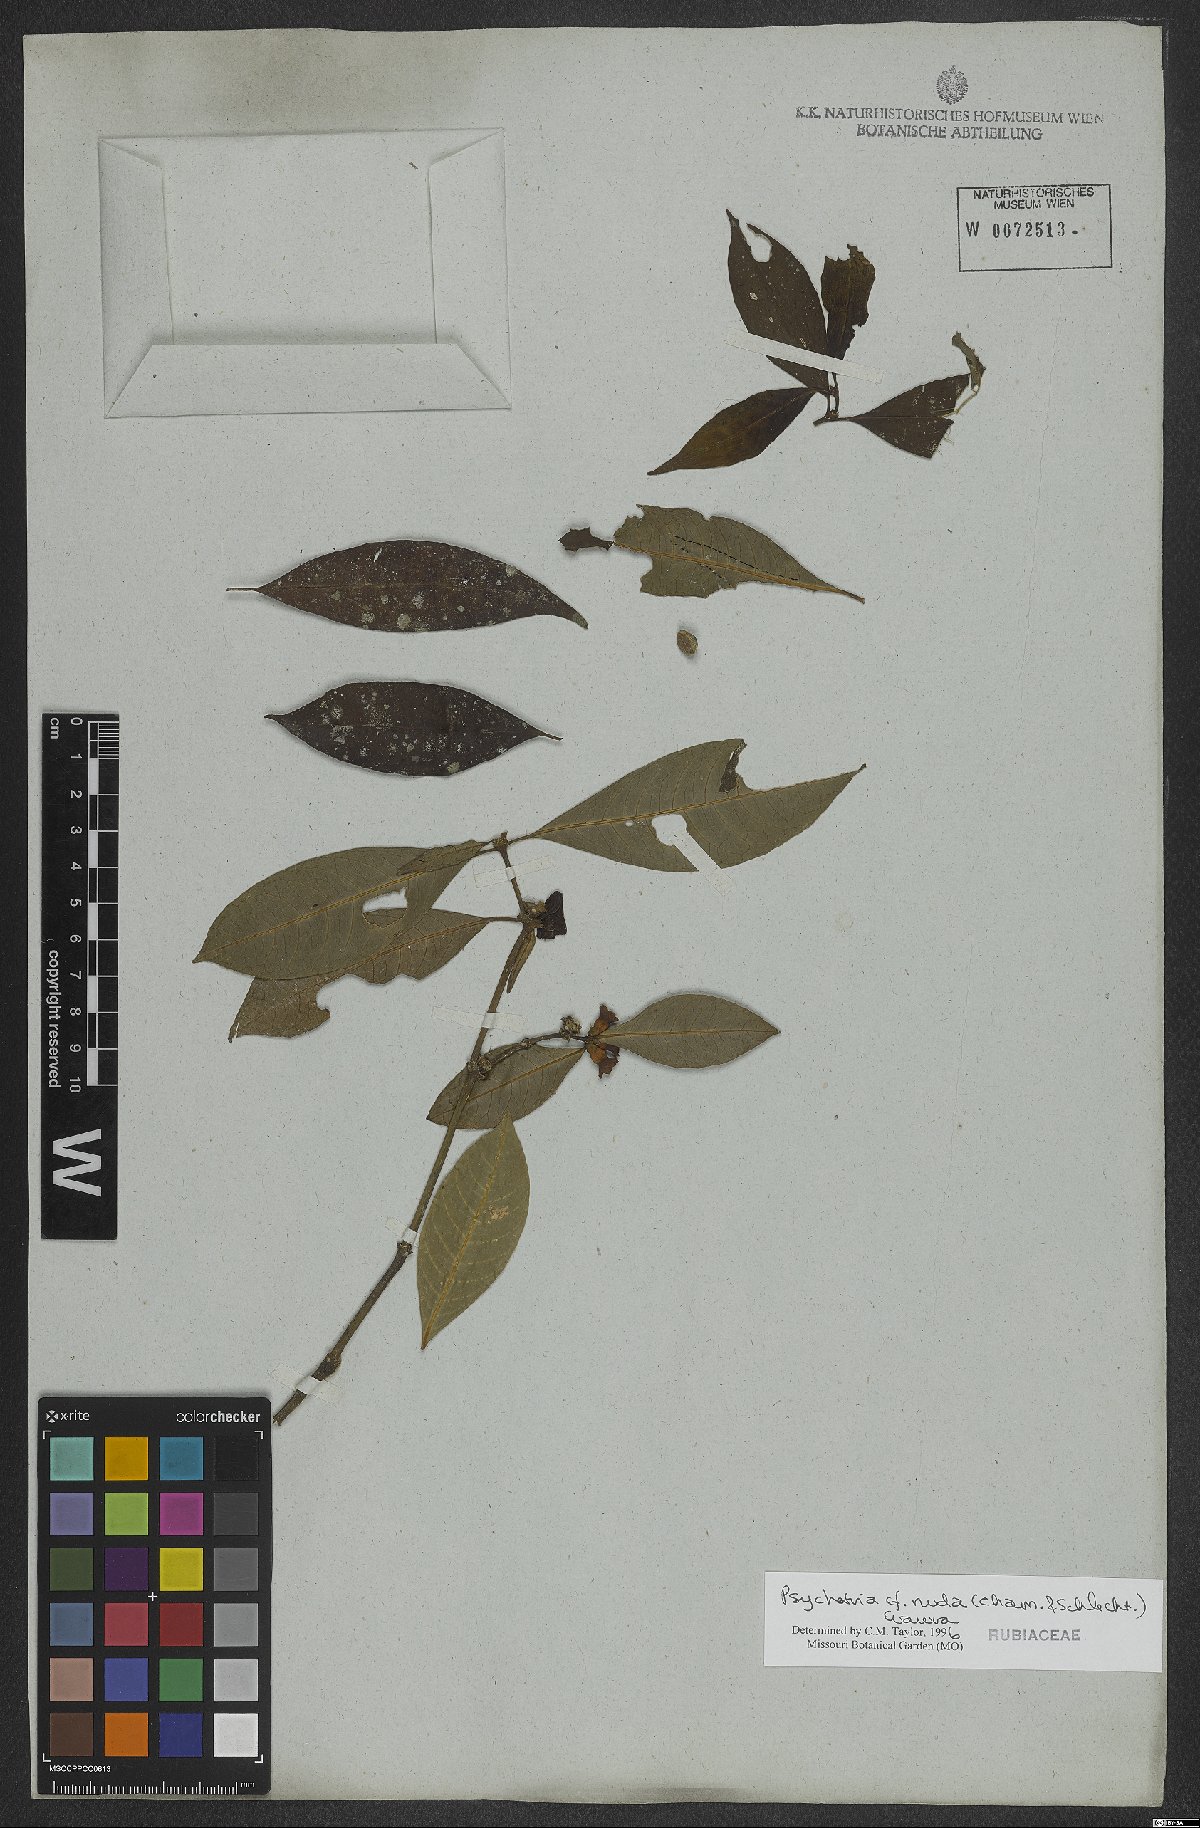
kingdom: Plantae
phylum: Tracheophyta
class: Magnoliopsida
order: Gentianales
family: Rubiaceae
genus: Psychotria
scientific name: Psychotria nuda
